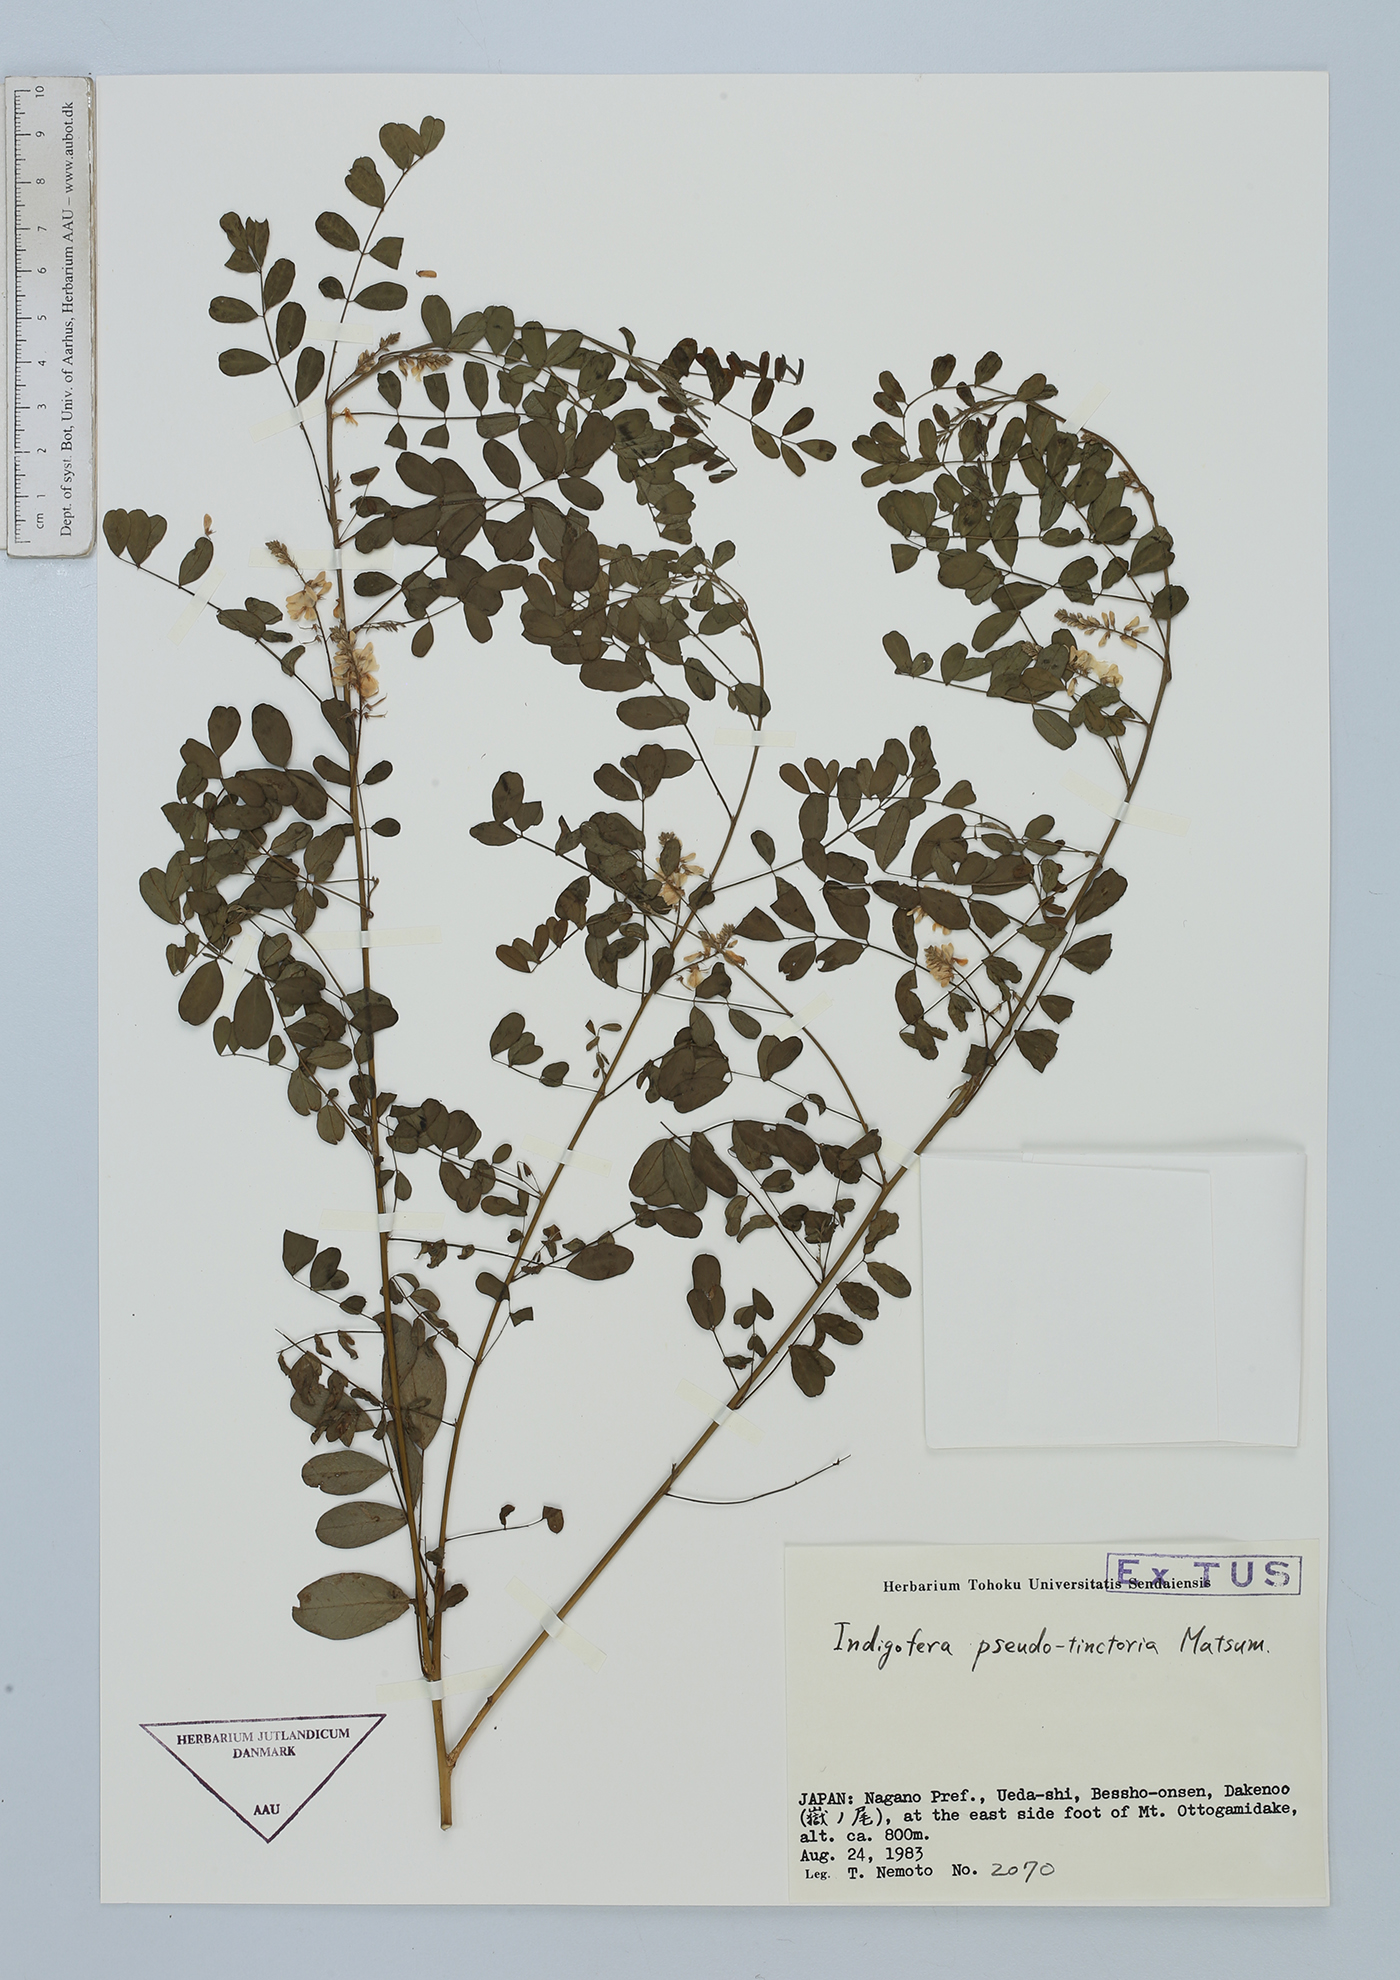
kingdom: Plantae
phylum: Tracheophyta
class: Magnoliopsida
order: Fabales
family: Fabaceae
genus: Indigofera
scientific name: Indigofera bungeana
